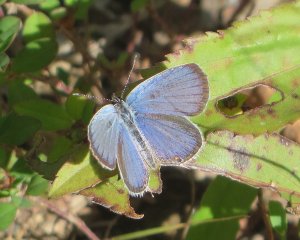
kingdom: Animalia
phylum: Arthropoda
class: Insecta
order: Lepidoptera
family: Lycaenidae
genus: Elkalyce
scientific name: Elkalyce comyntas
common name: Eastern Tailed-Blue
